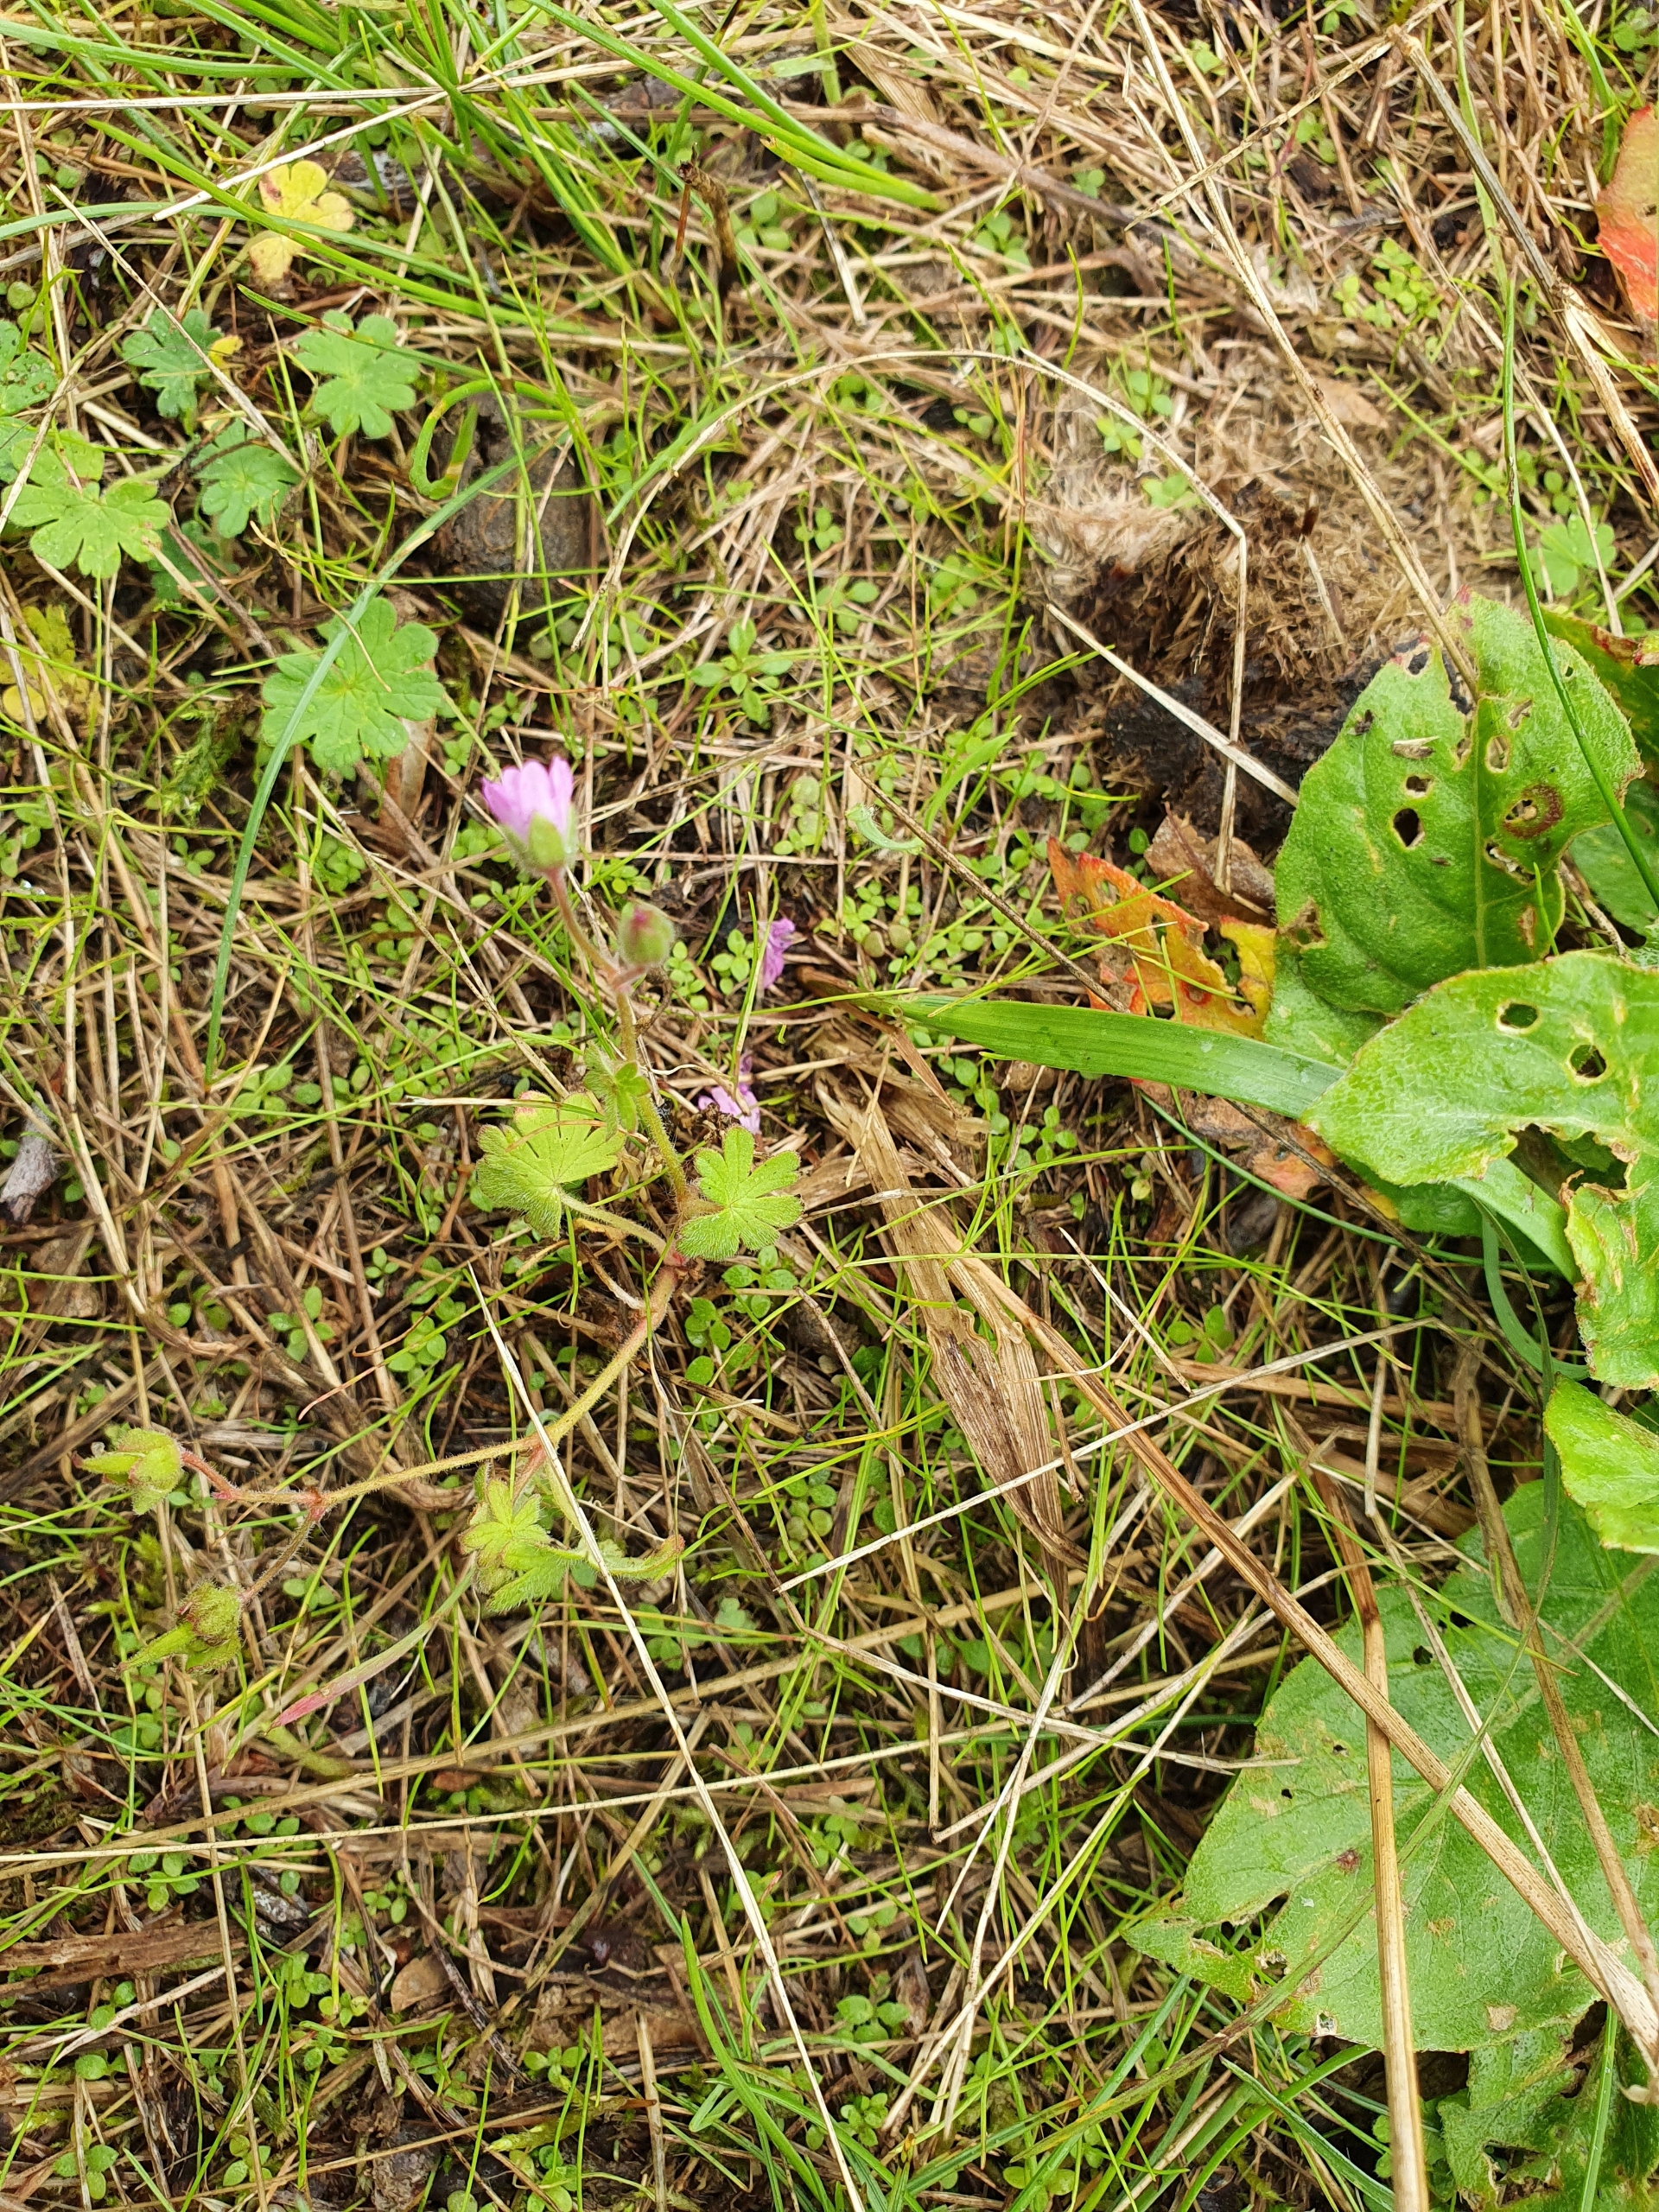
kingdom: Plantae
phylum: Tracheophyta
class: Magnoliopsida
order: Geraniales
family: Geraniaceae
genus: Geranium
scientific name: Geranium pusillum
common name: Liden storkenæb
